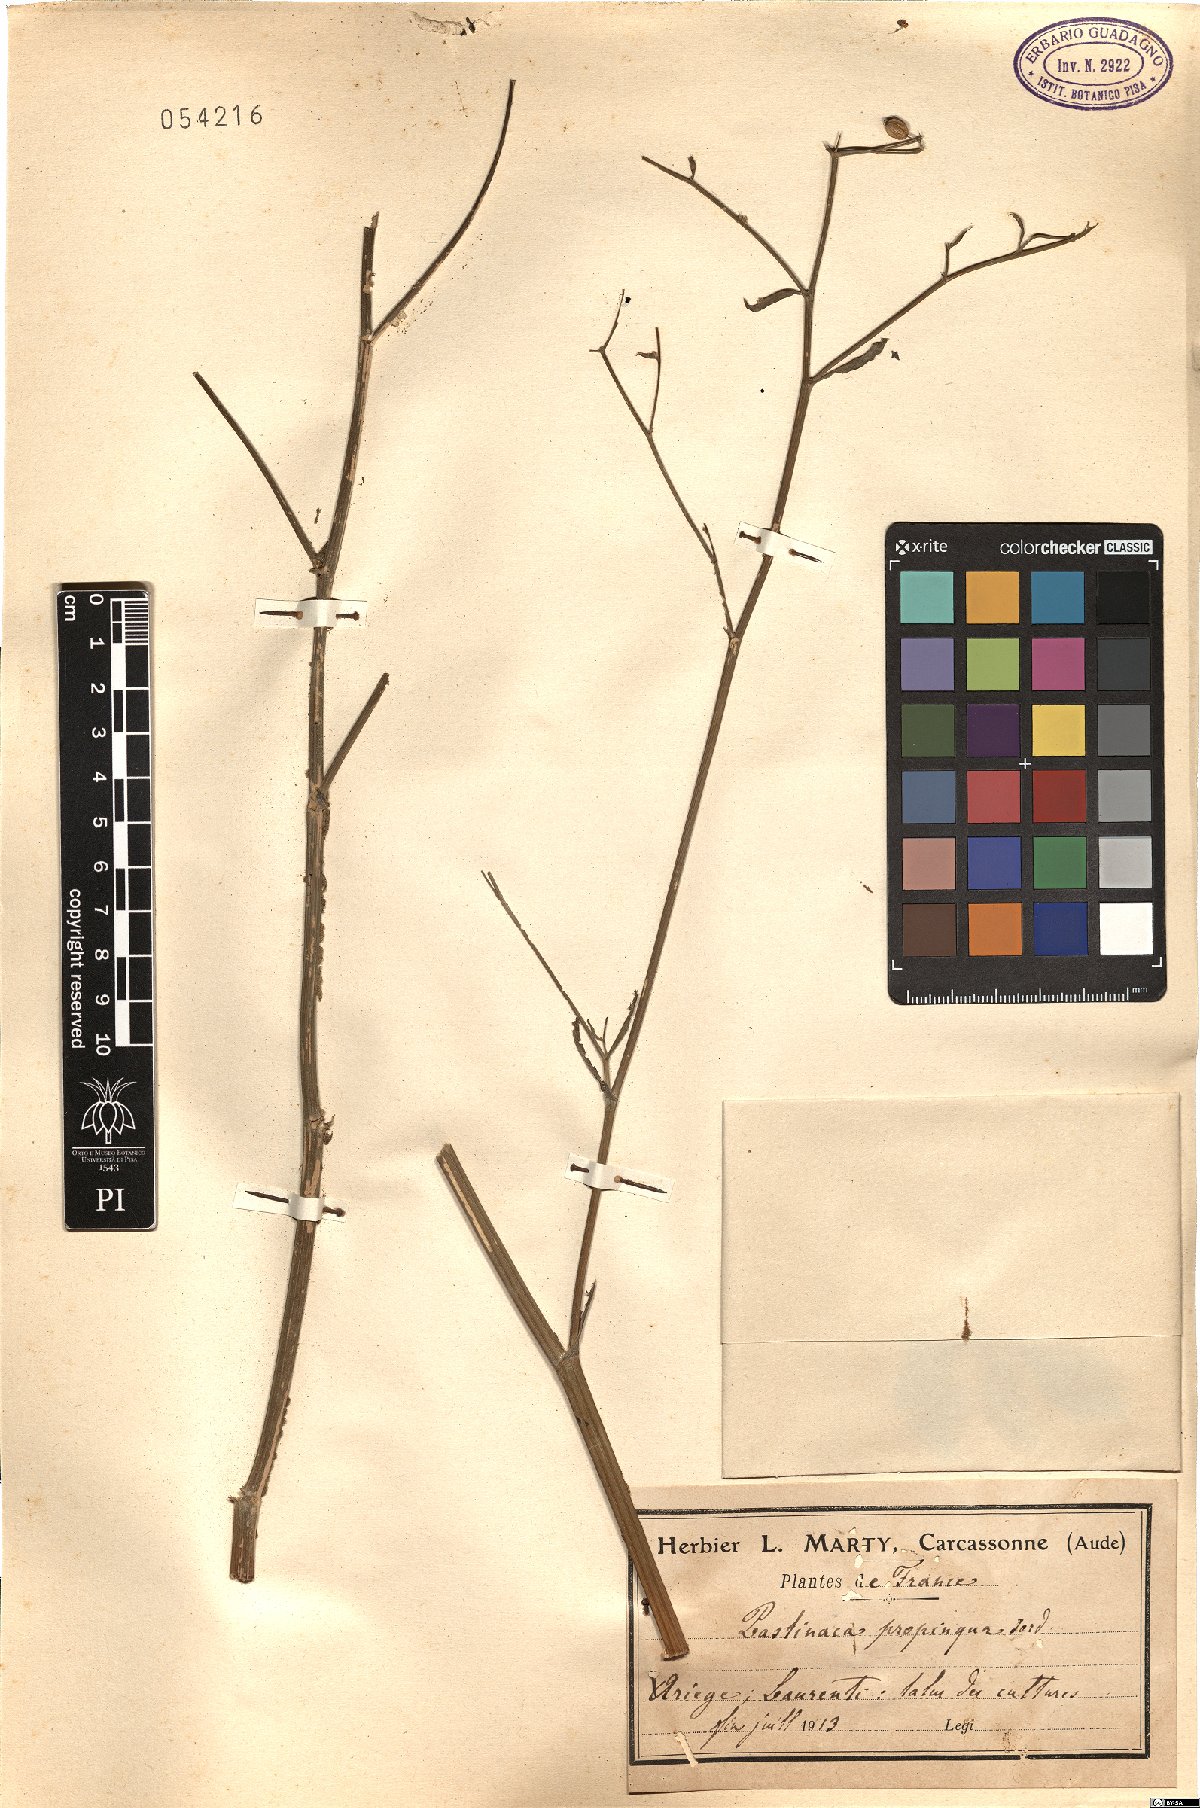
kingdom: Plantae
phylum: Tracheophyta
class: Magnoliopsida
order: Apiales
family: Apiaceae
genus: Pastinaca
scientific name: Pastinaca sativa
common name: Wild parsnip
